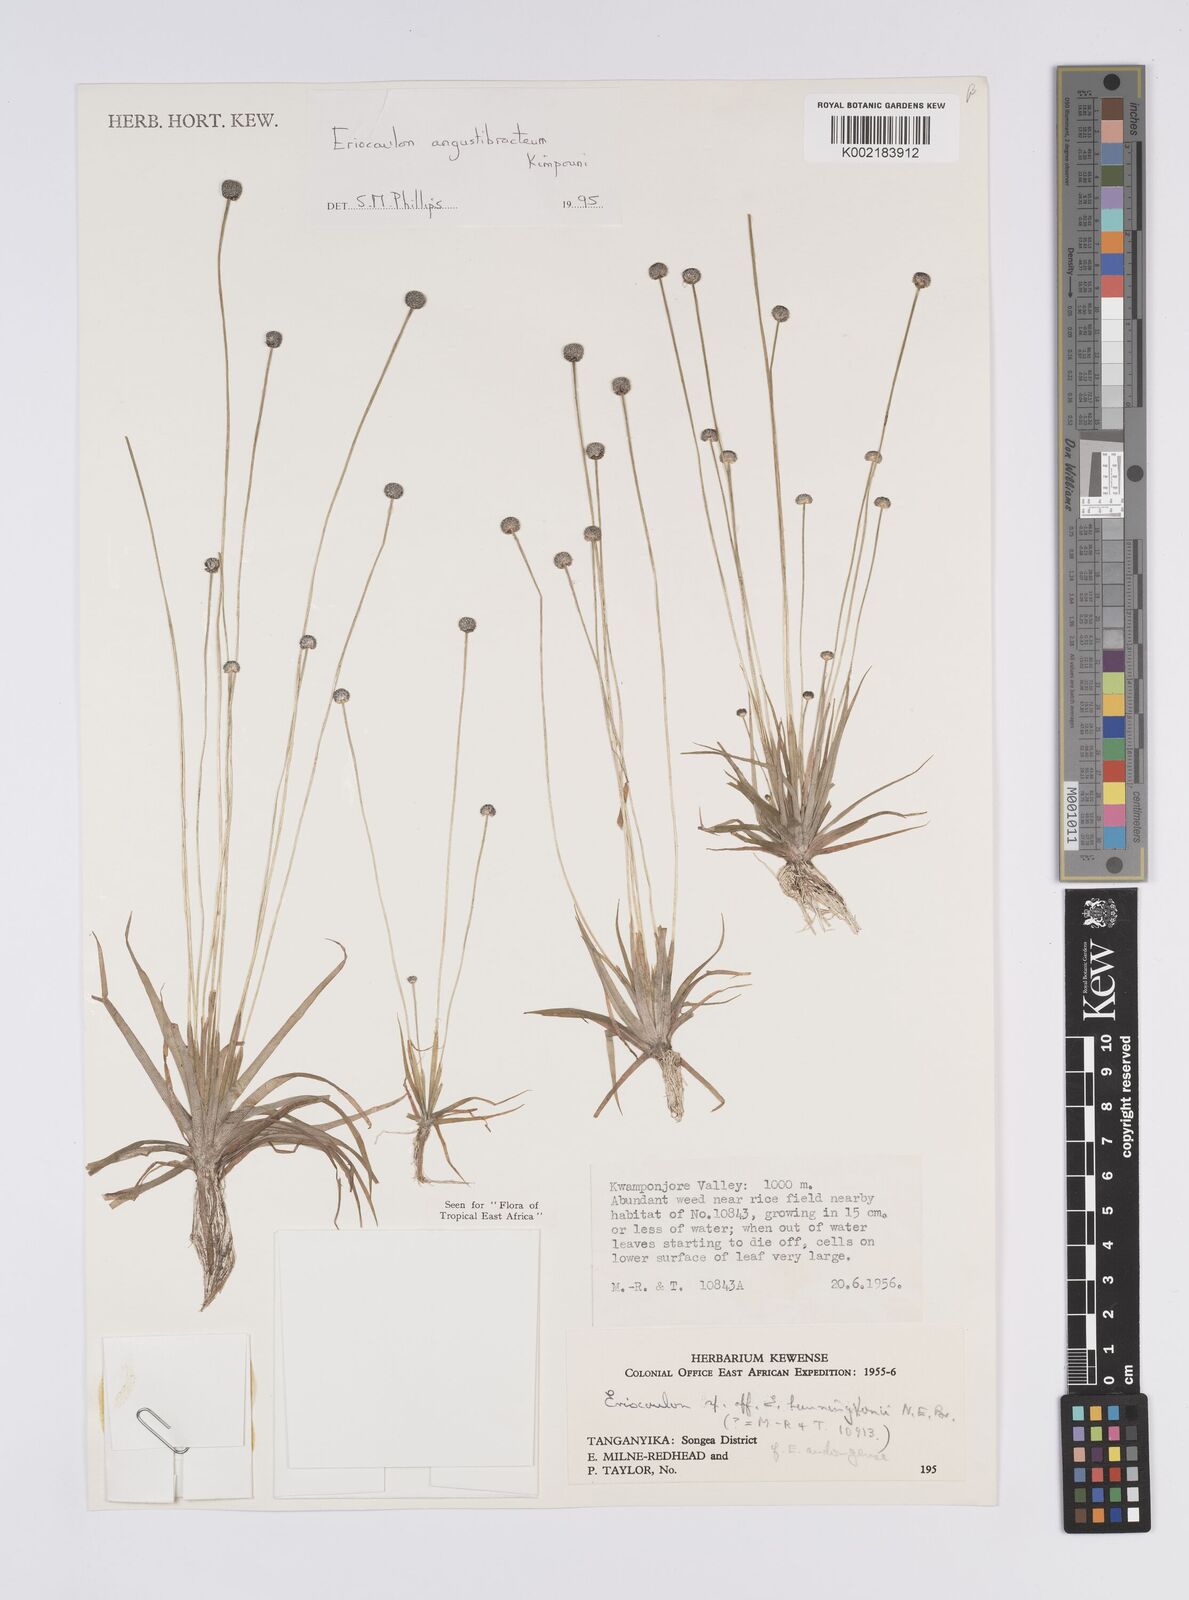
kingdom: Plantae
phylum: Tracheophyta
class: Liliopsida
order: Poales
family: Eriocaulaceae
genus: Eriocaulon
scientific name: Eriocaulon angustibracteum
